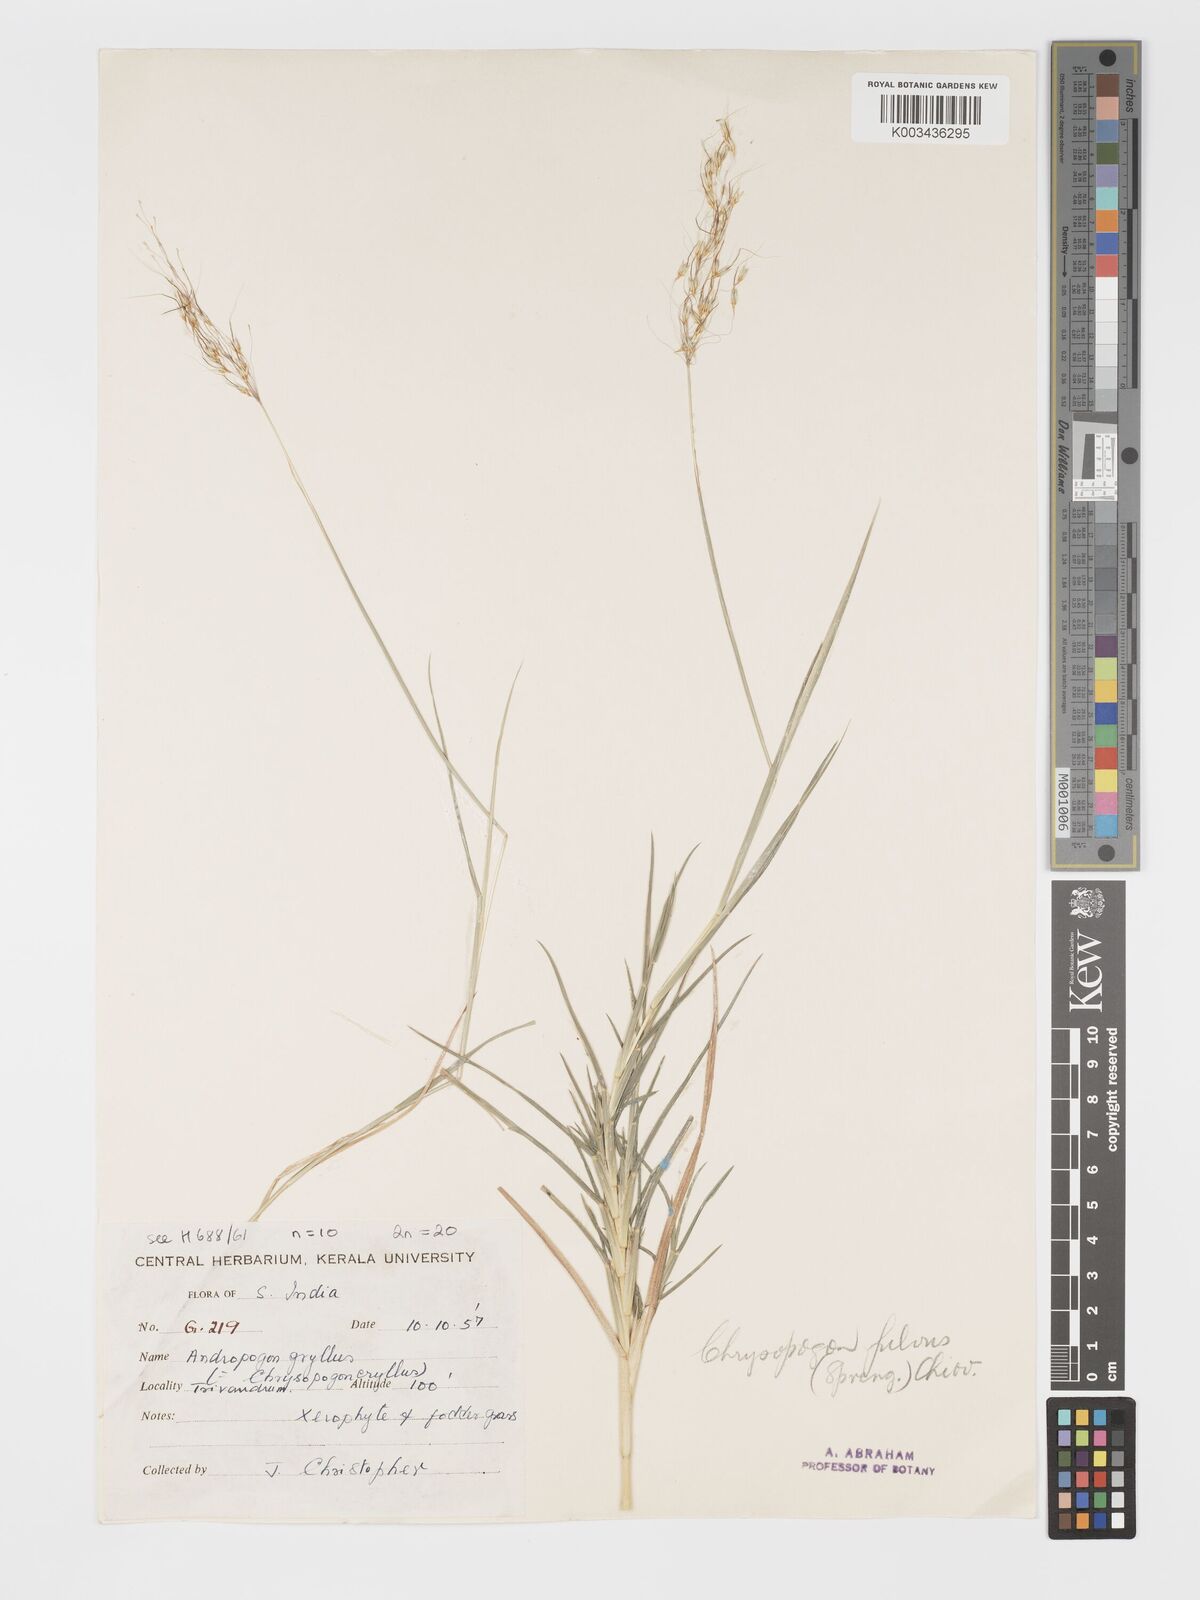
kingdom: Plantae
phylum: Tracheophyta
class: Liliopsida
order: Poales
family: Poaceae
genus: Chrysopogon
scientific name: Chrysopogon fulvus
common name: Red false beardgrass
